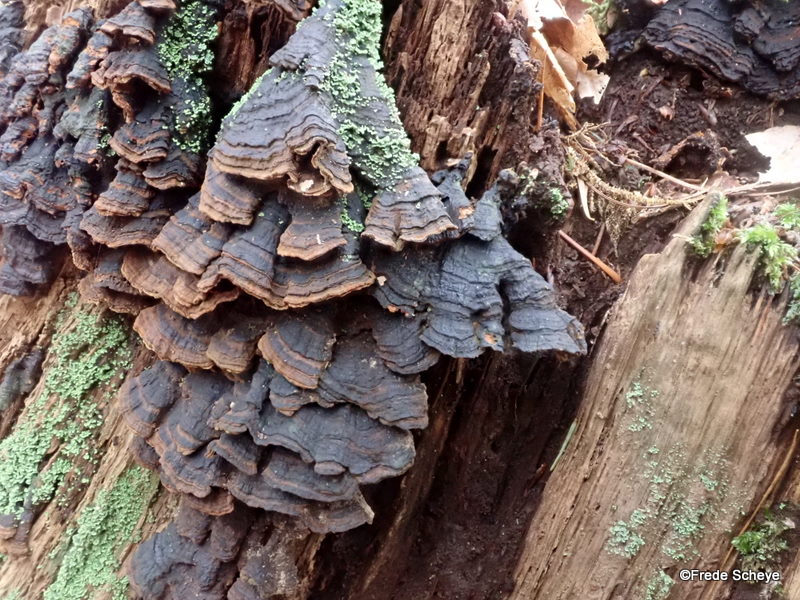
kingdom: Fungi
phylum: Basidiomycota
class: Agaricomycetes
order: Hymenochaetales
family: Hymenochaetaceae
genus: Hymenochaete
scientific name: Hymenochaete rubiginosa
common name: stiv ruslædersvamp
